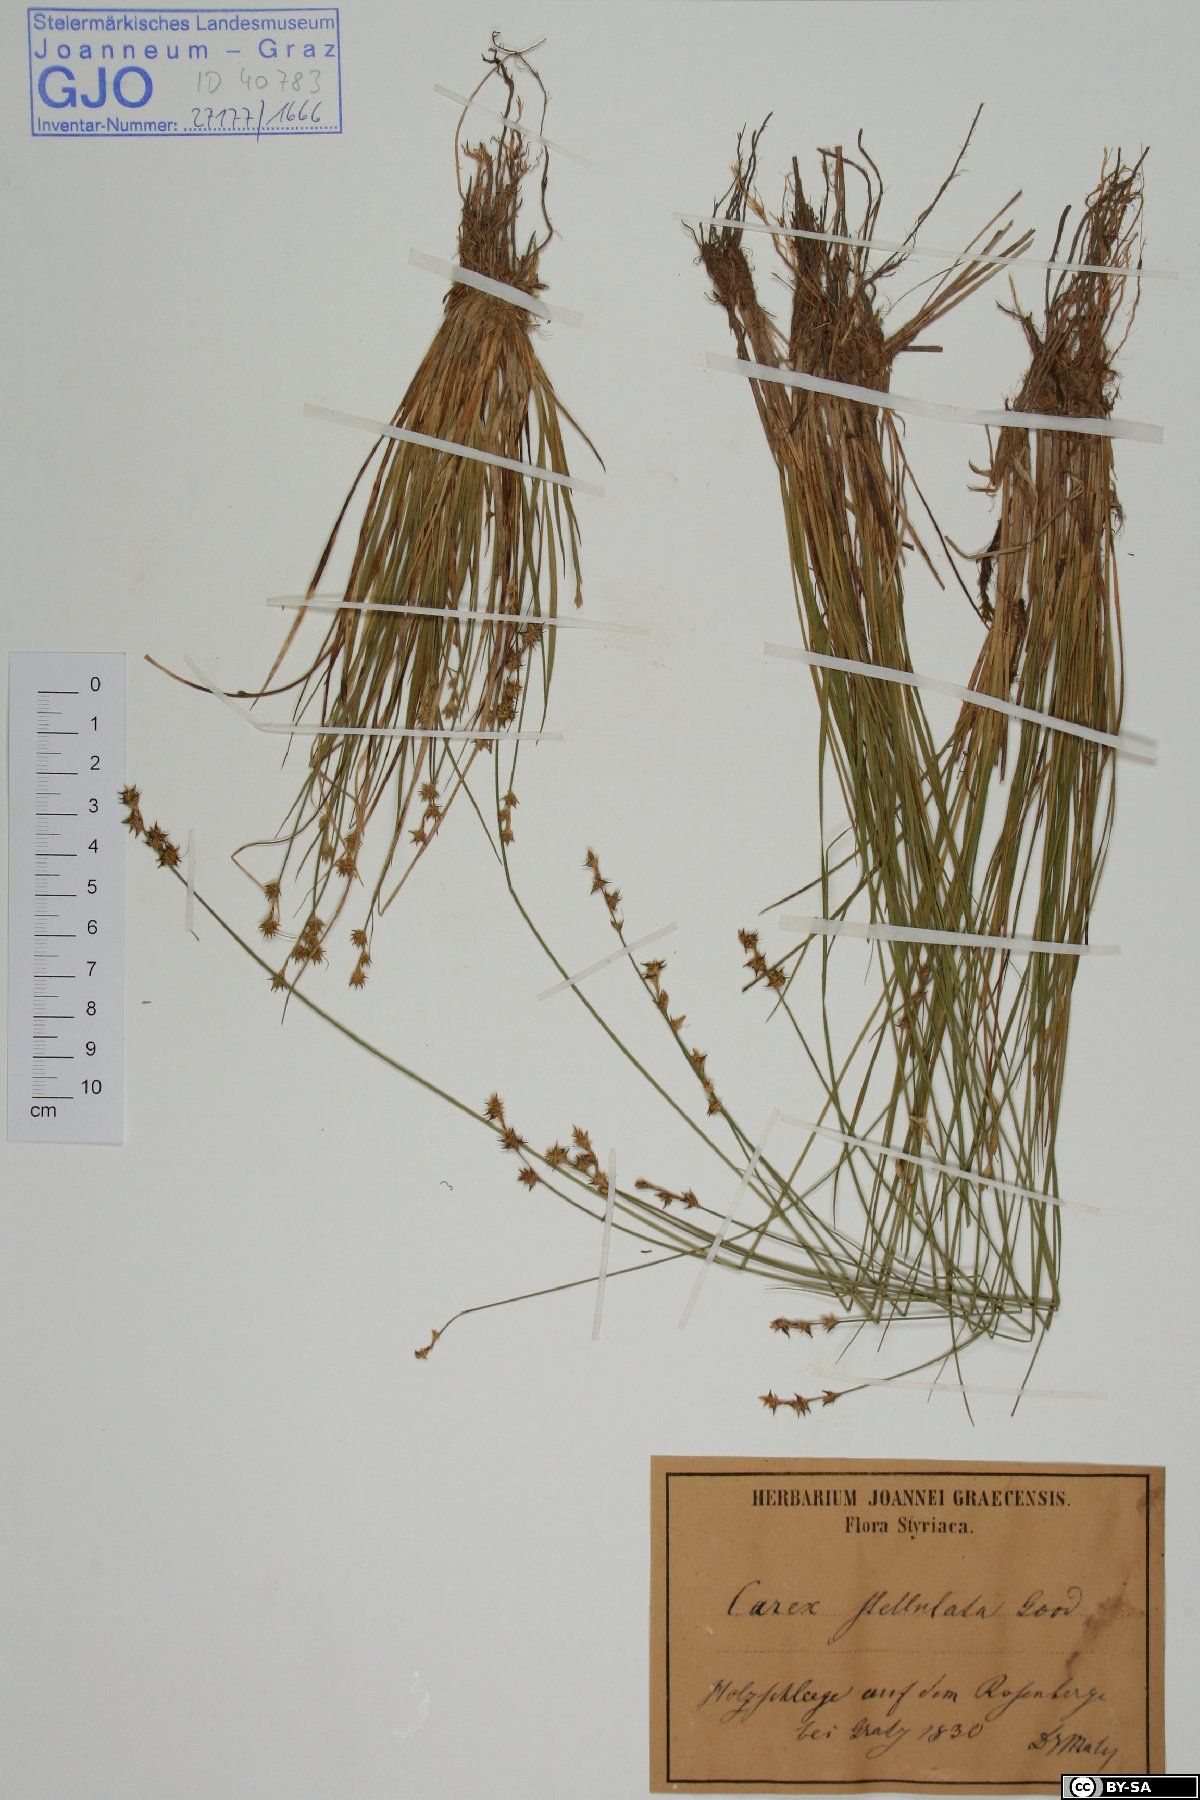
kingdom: Plantae
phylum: Tracheophyta
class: Liliopsida
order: Poales
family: Cyperaceae
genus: Carex
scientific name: Carex echinata
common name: Star sedge
